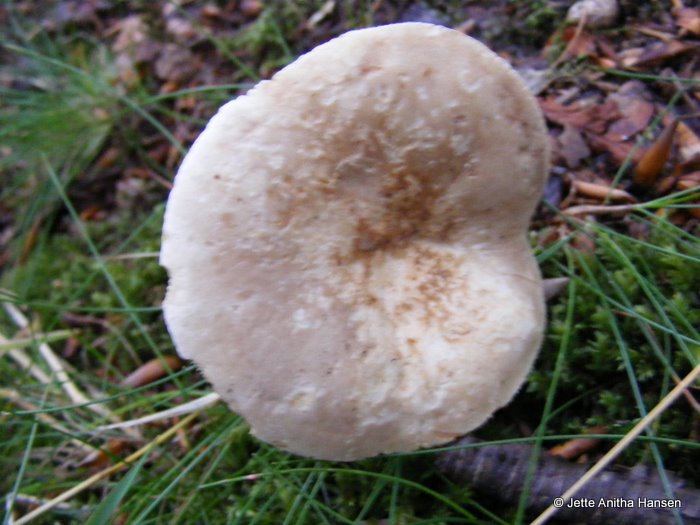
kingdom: Fungi
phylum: Basidiomycota
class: Agaricomycetes
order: Russulales
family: Russulaceae
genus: Lactarius
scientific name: Lactarius acris
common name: rosamælket mælkehat
